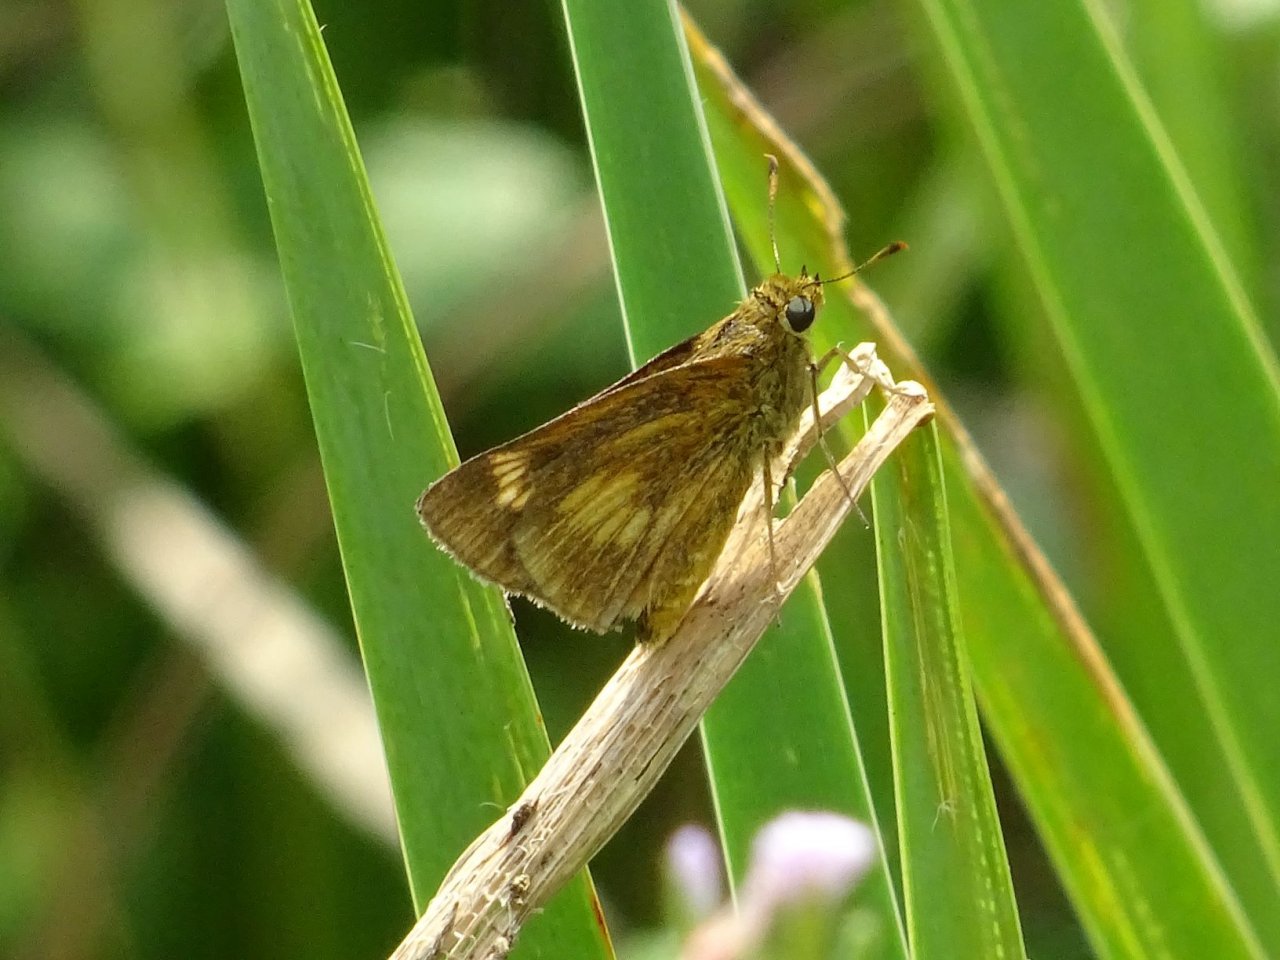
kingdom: Animalia
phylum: Arthropoda
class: Insecta
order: Lepidoptera
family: Hesperiidae
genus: Euphyes
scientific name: Euphyes conspicua
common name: Black Dash
